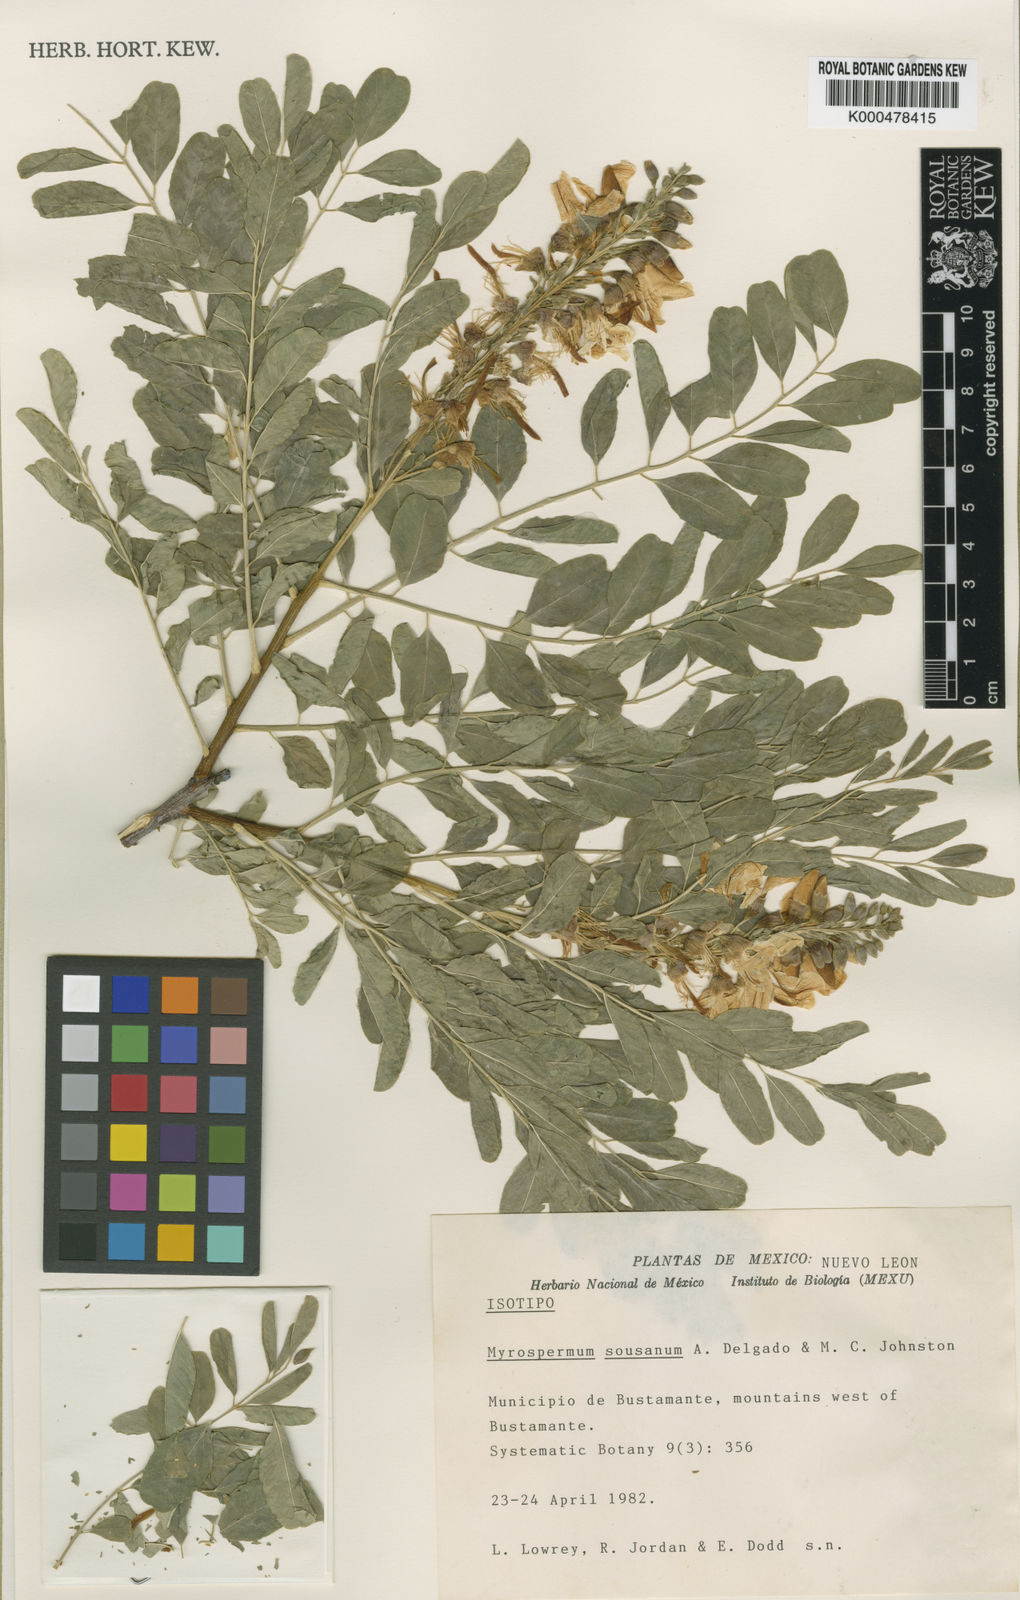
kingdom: Plantae
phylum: Tracheophyta
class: Magnoliopsida
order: Fabales
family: Fabaceae
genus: Myrospermum
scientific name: Myrospermum sousanum
